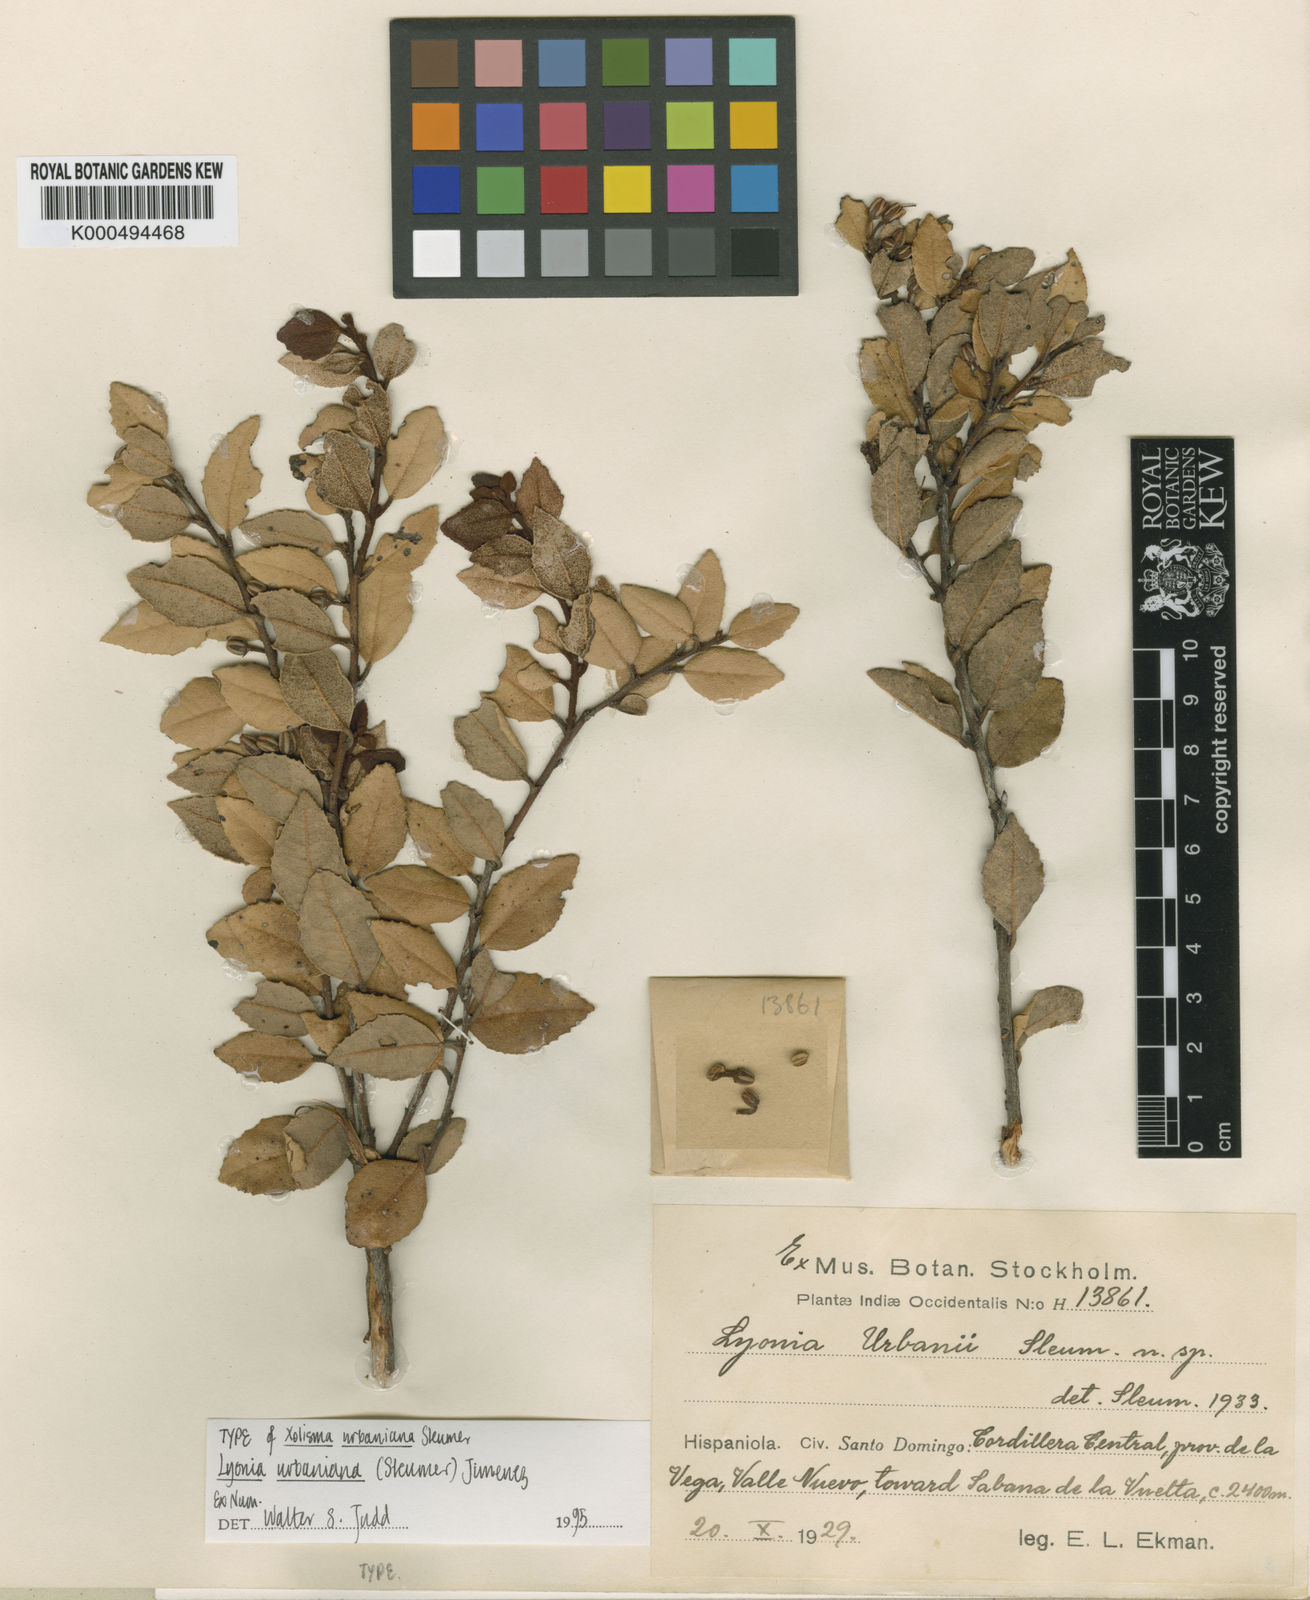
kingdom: Plantae
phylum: Tracheophyta
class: Magnoliopsida
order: Ericales
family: Ericaceae
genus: Lyonia
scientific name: Lyonia
